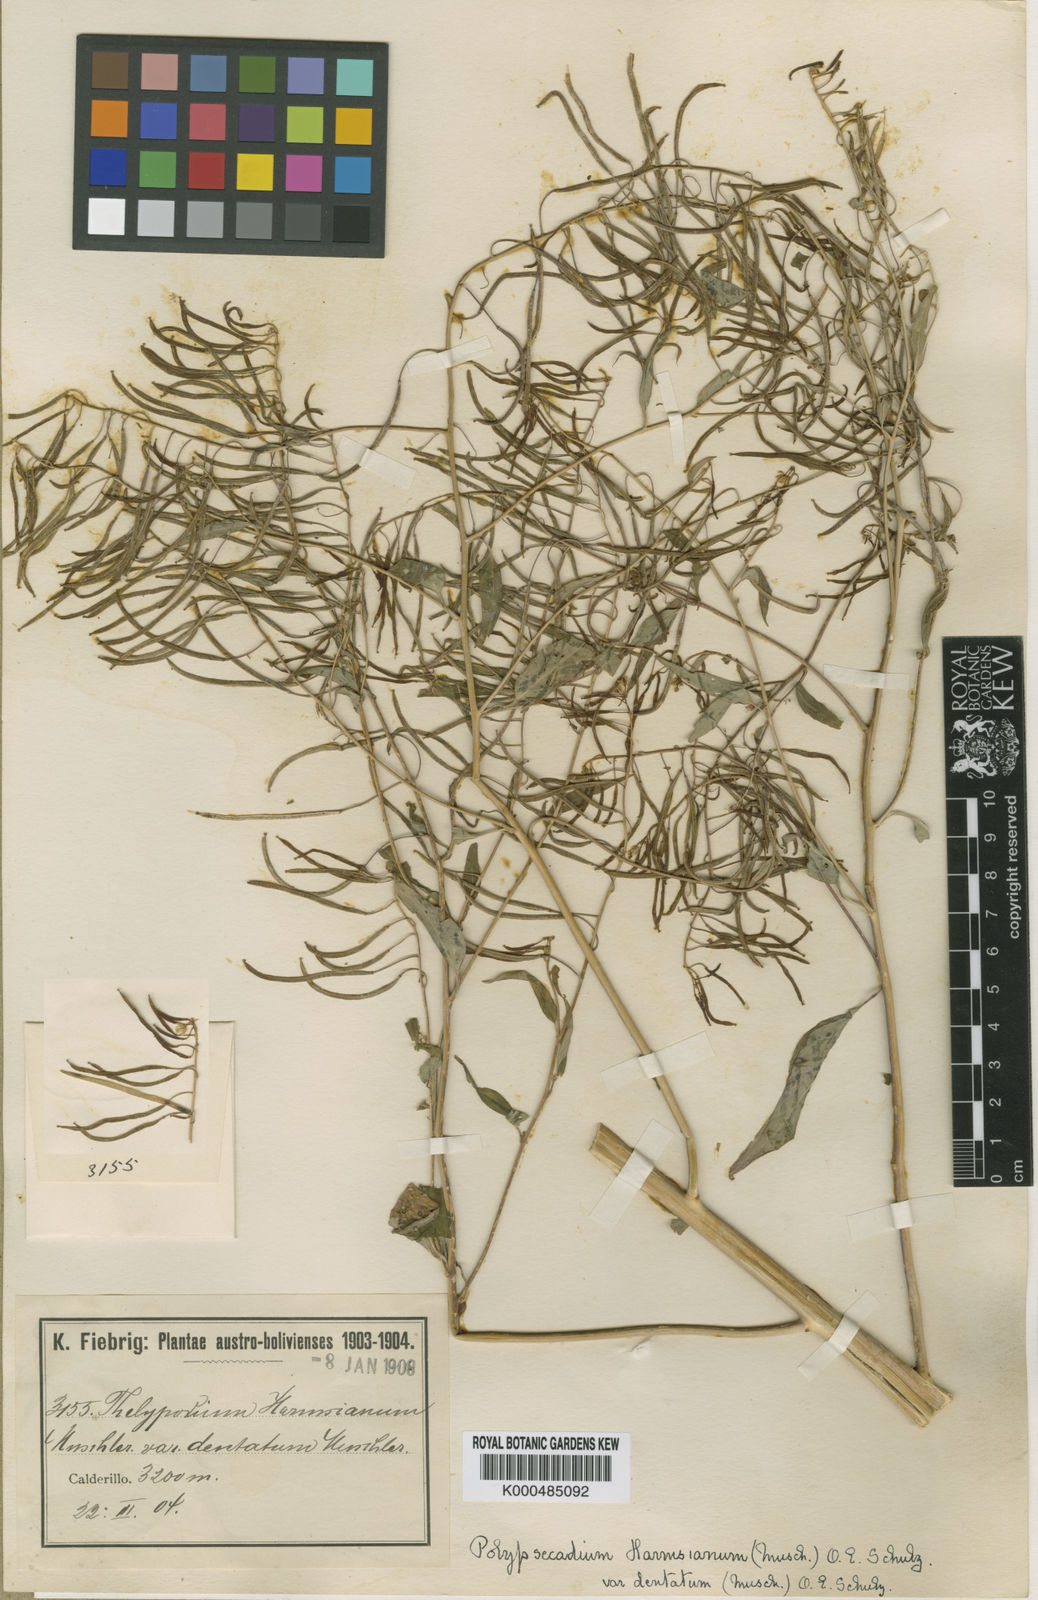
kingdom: Plantae
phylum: Tracheophyta
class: Magnoliopsida
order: Brassicales
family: Brassicaceae
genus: Polypsecadium
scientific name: Polypsecadium harmsianum
